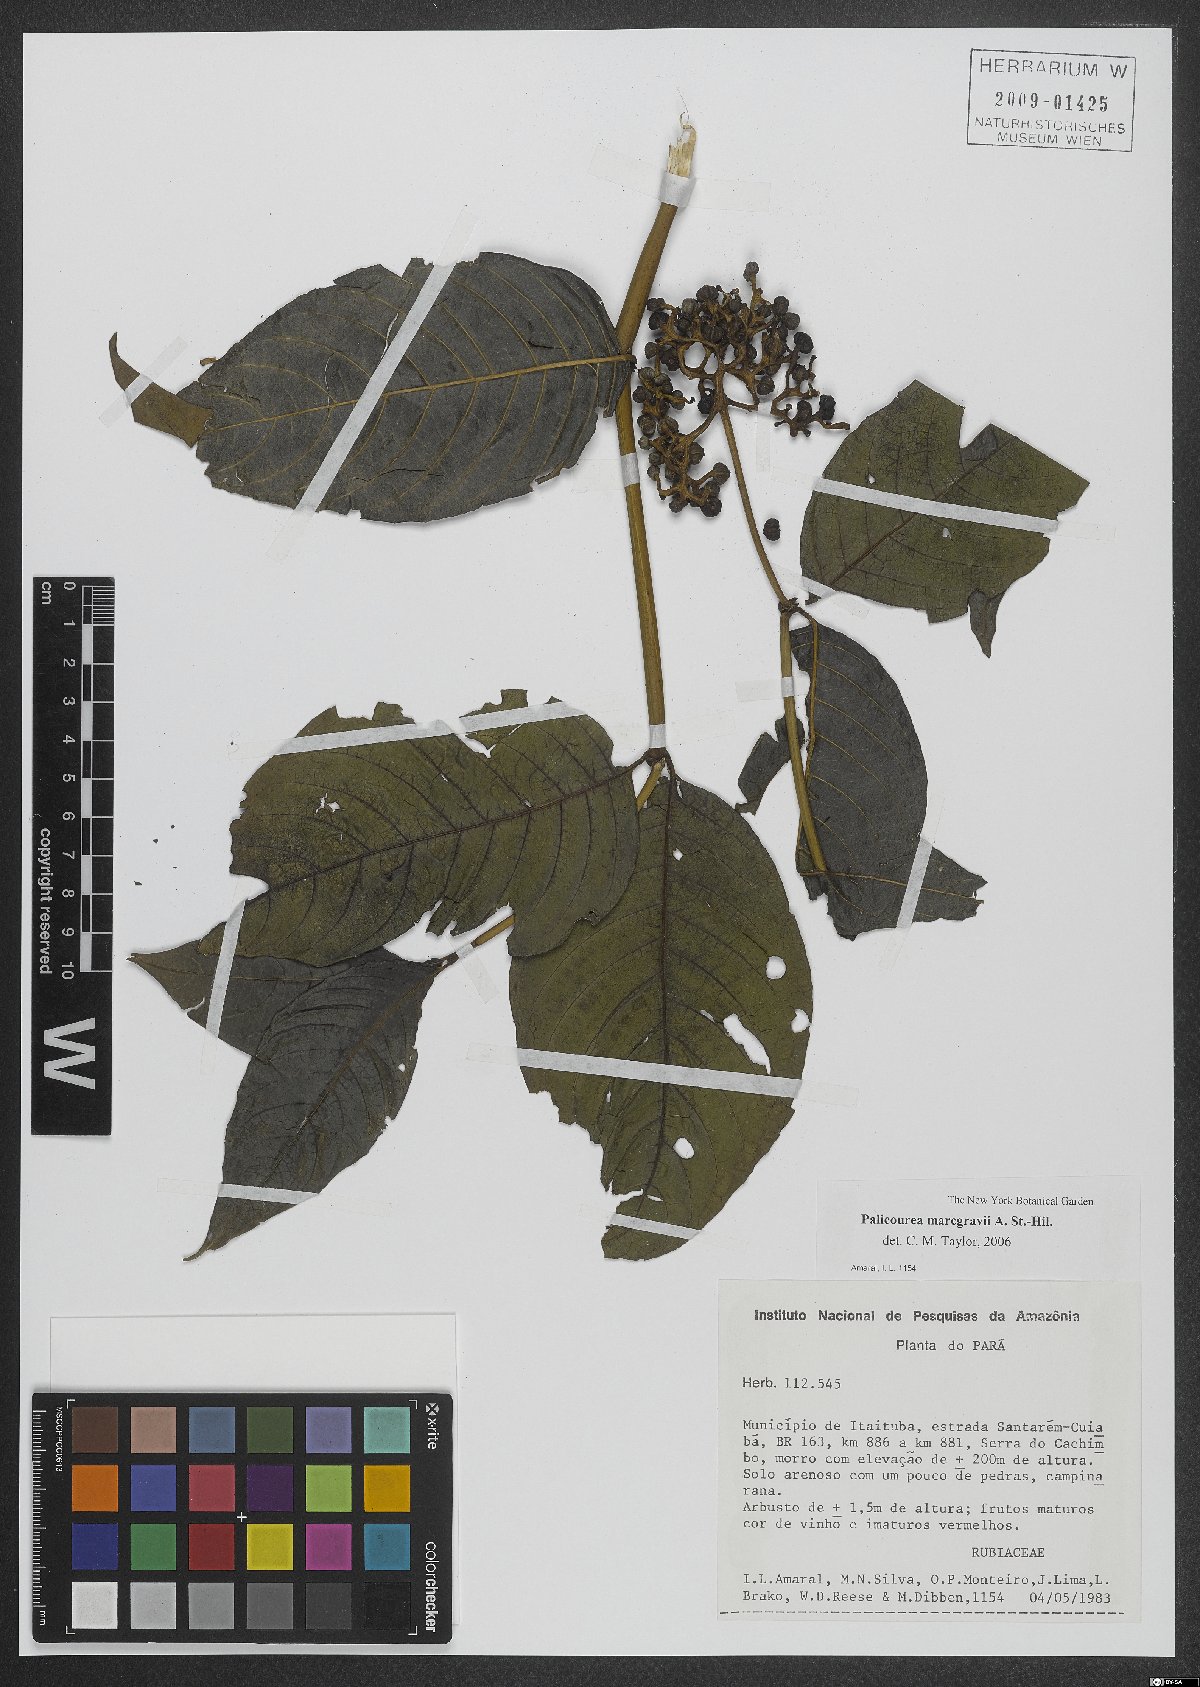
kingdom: Plantae
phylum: Tracheophyta
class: Magnoliopsida
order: Gentianales
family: Rubiaceae
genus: Palicourea
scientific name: Palicourea marcgravii
